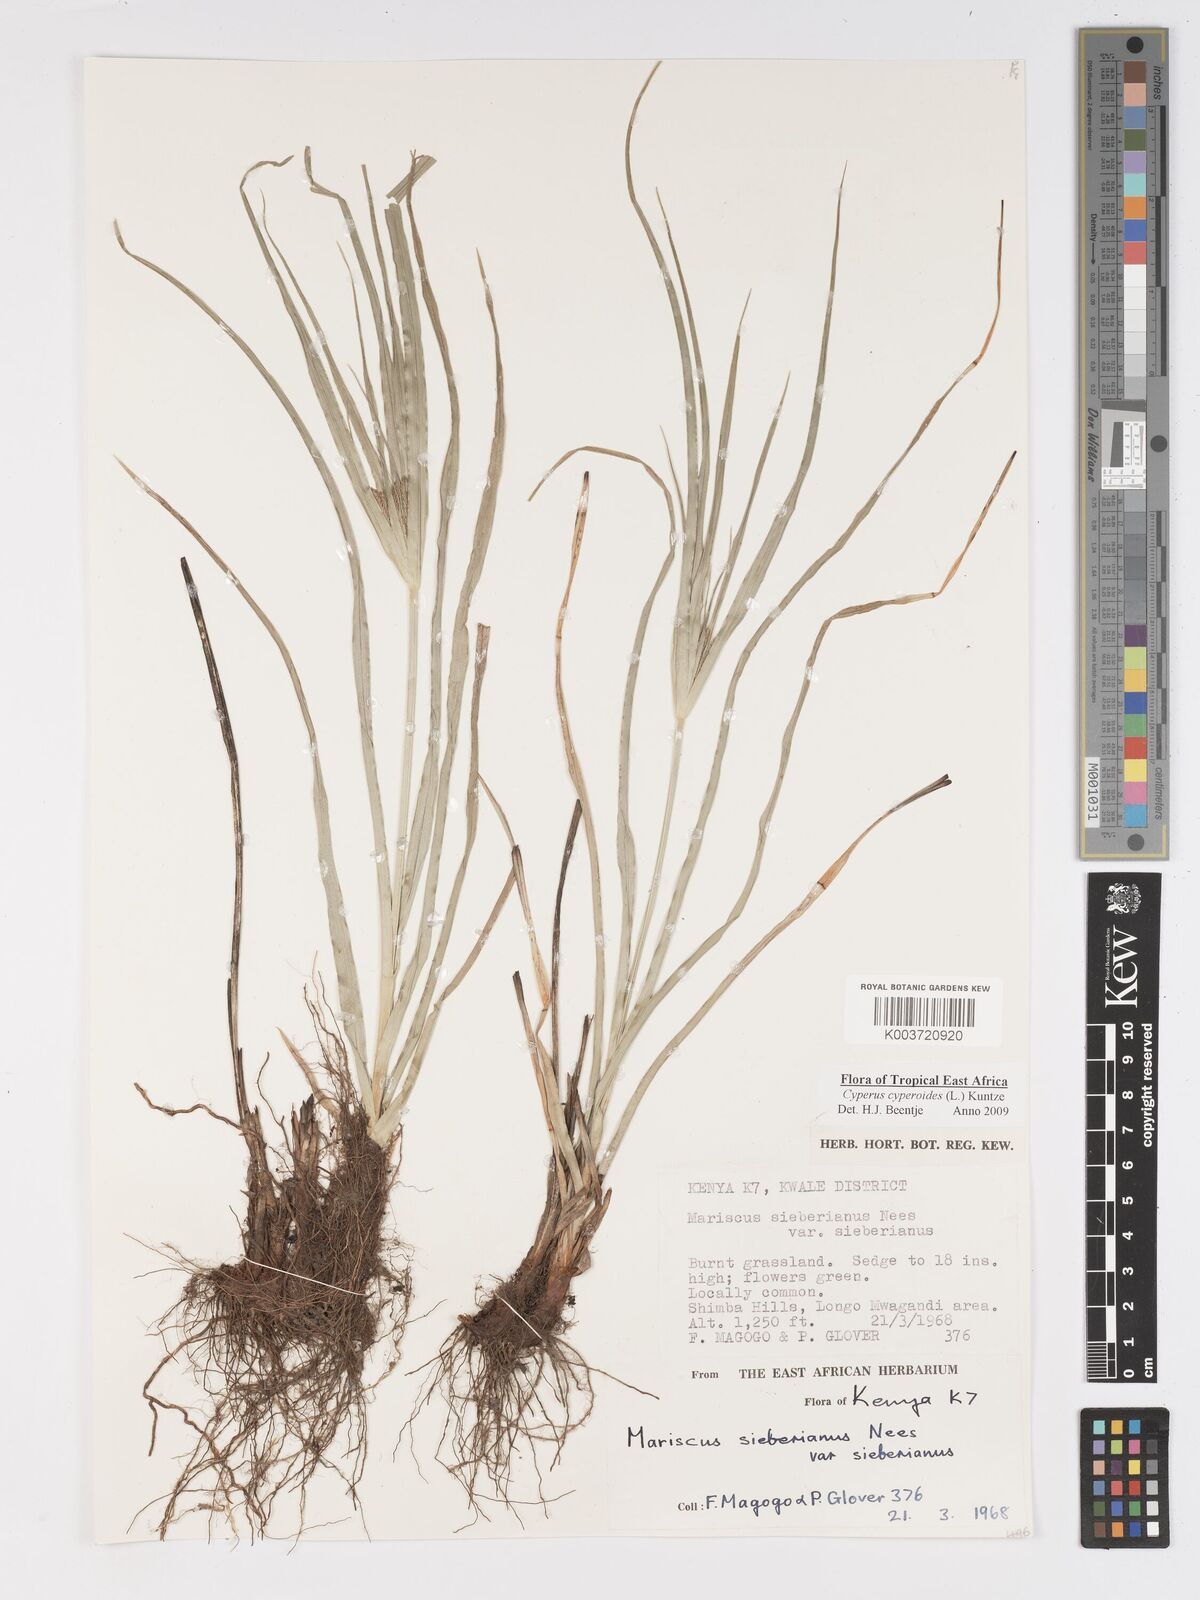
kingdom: Plantae
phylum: Tracheophyta
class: Liliopsida
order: Poales
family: Cyperaceae
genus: Cyperus
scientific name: Cyperus cyperoides
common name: Pacific island flat sedge
